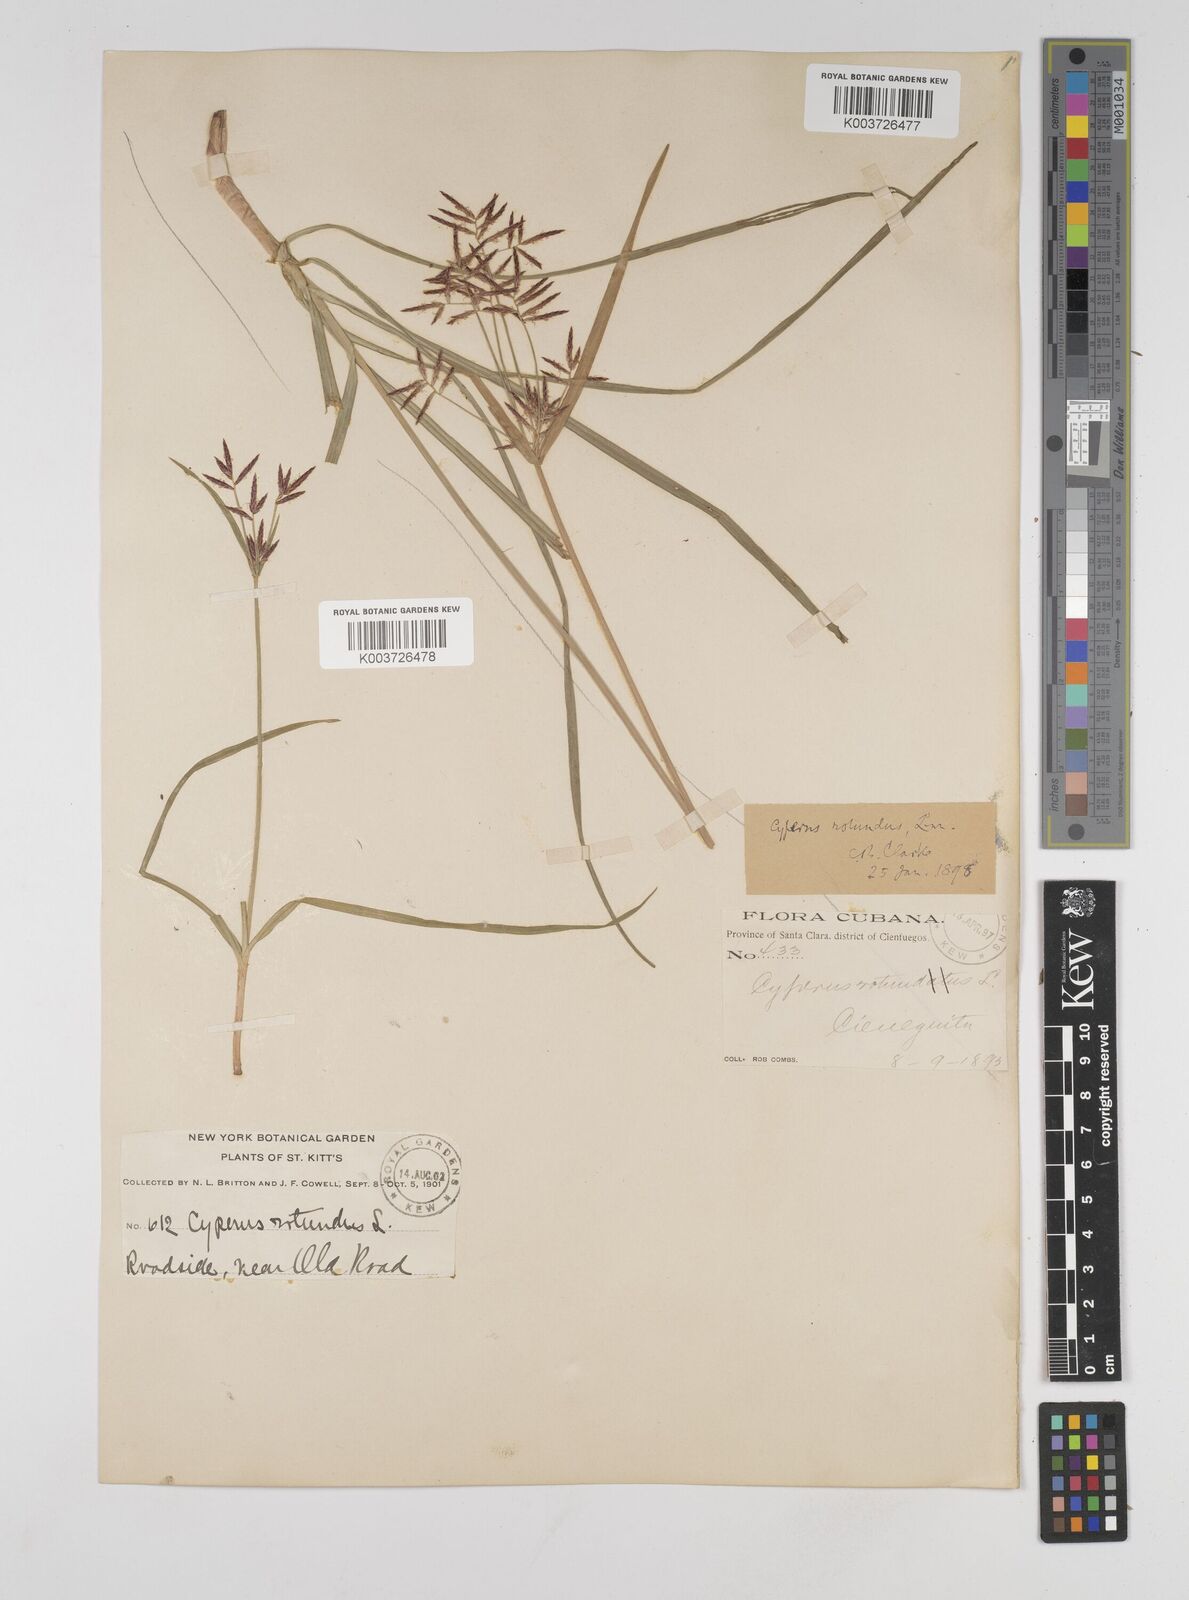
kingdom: Plantae
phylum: Tracheophyta
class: Liliopsida
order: Poales
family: Cyperaceae
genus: Cyperus
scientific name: Cyperus rotundus
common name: Nutgrass
